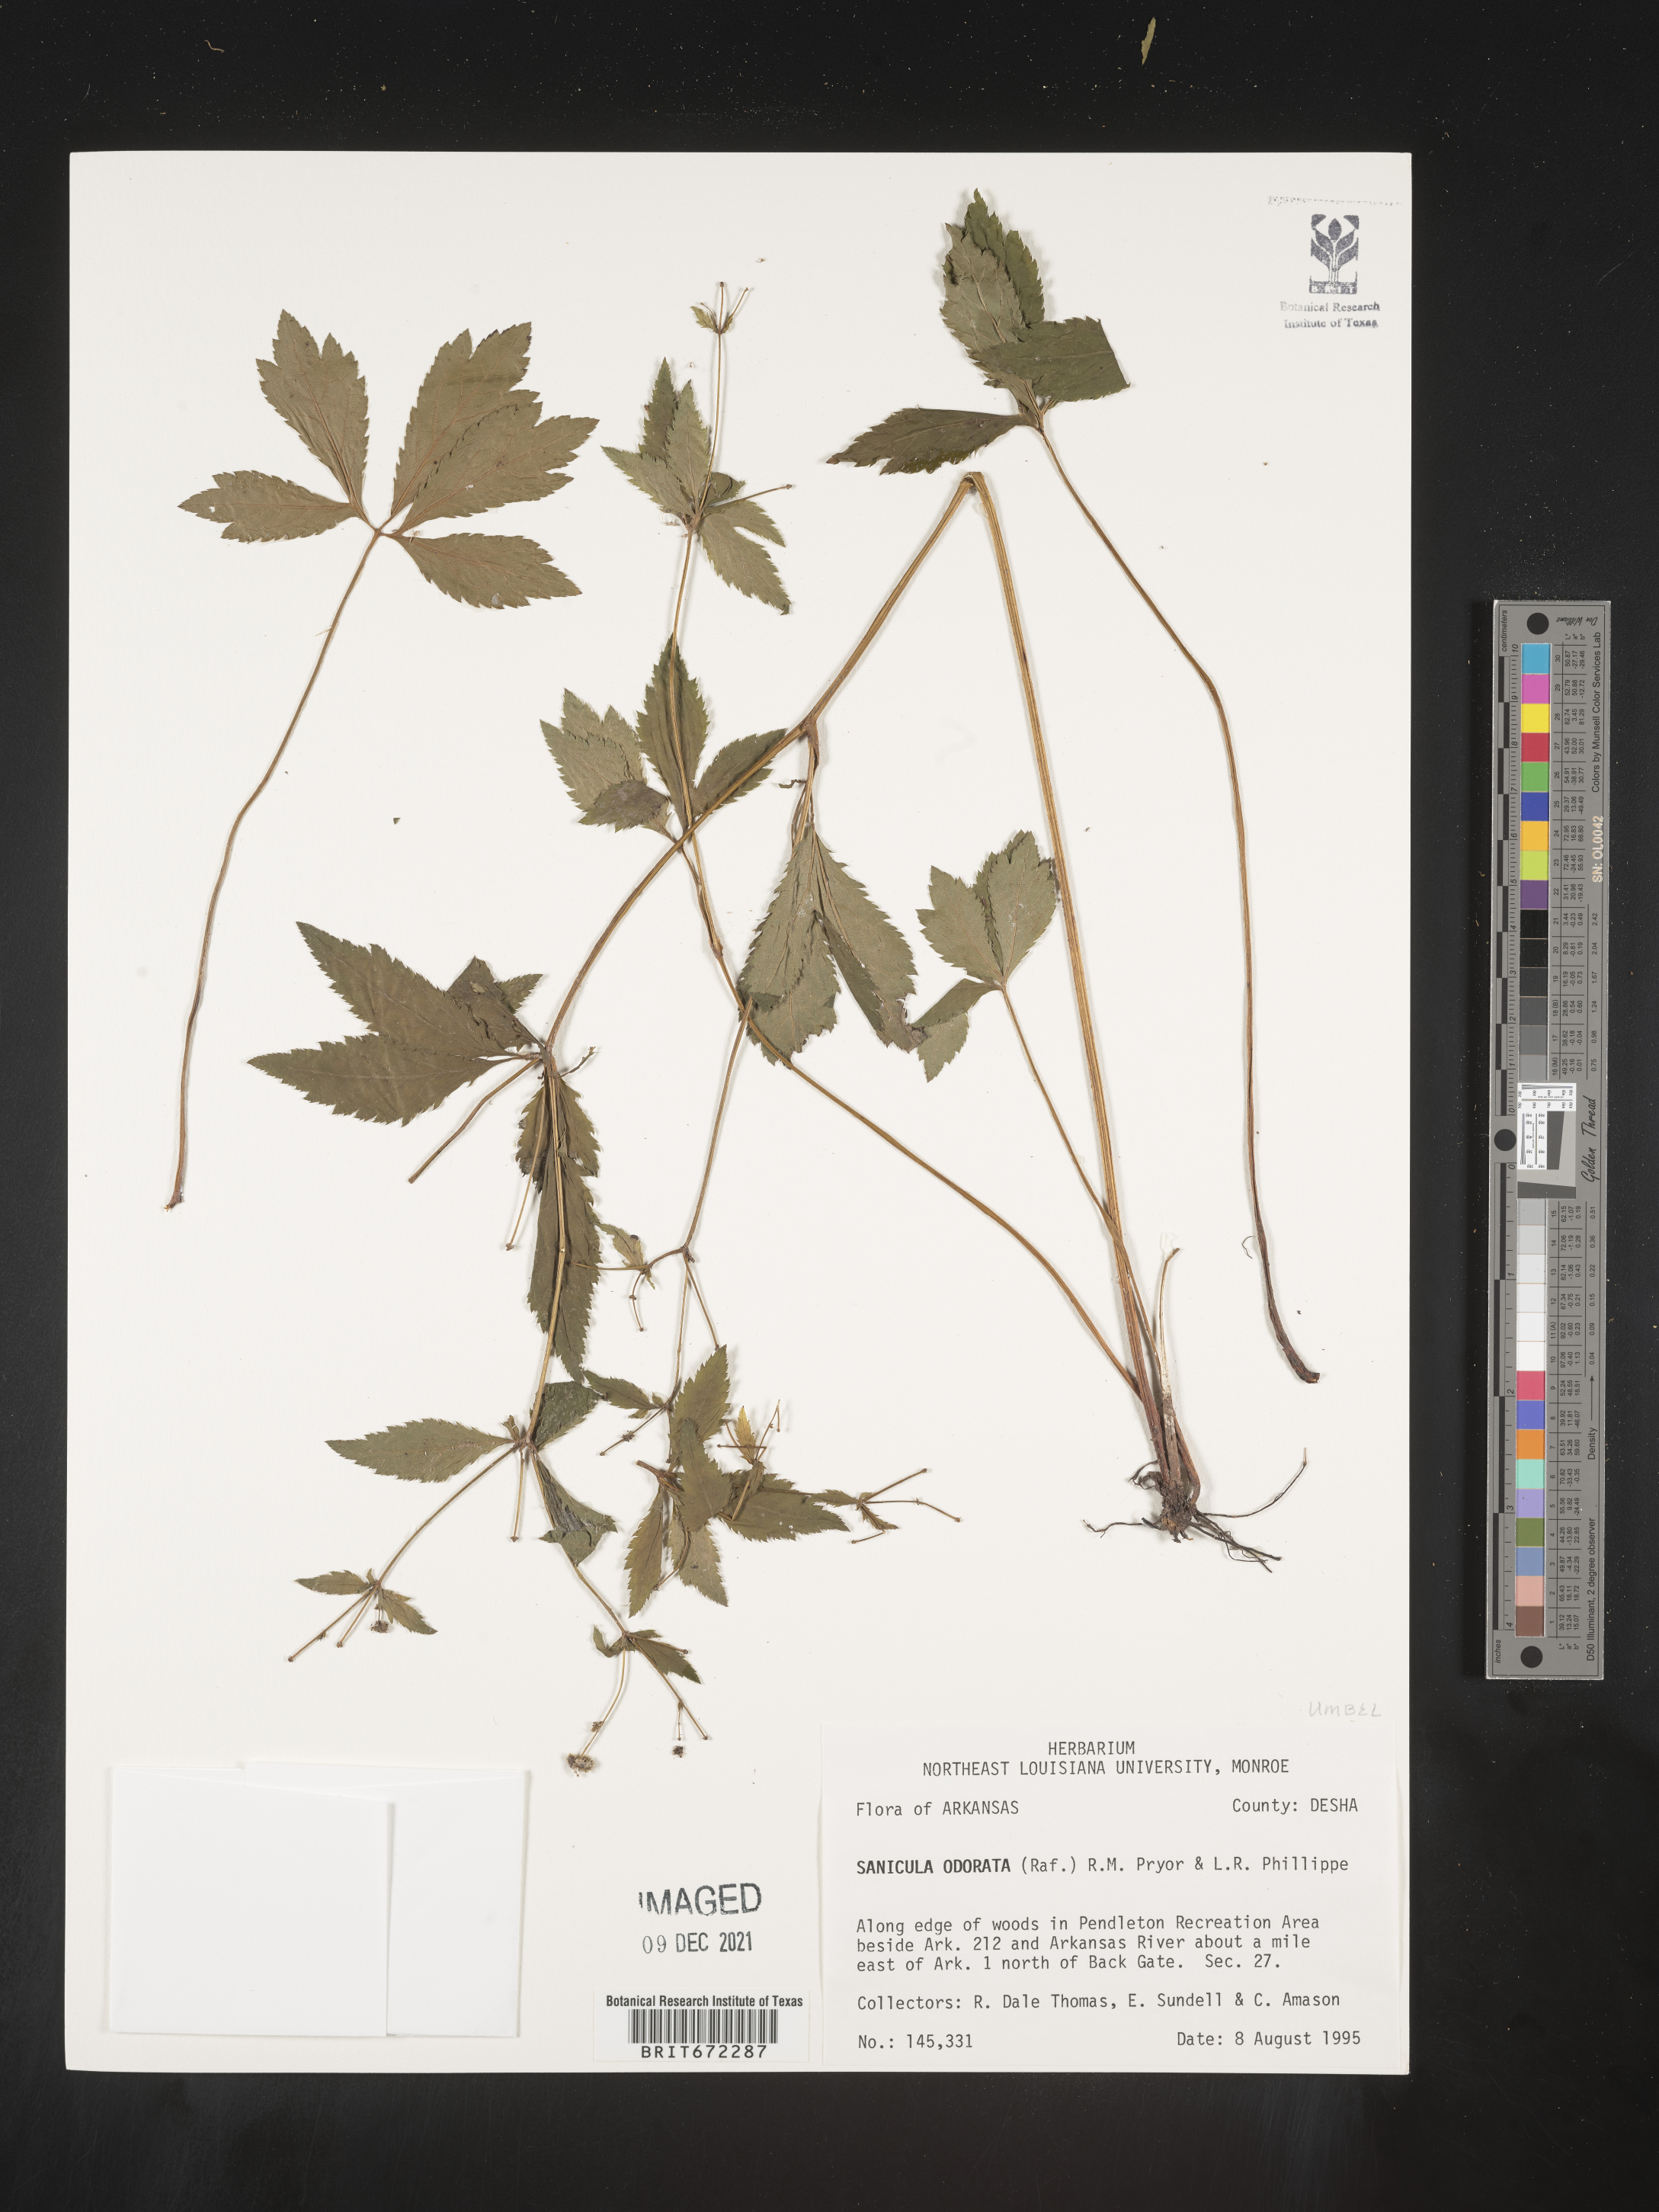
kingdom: Plantae
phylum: Tracheophyta
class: Magnoliopsida
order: Apiales
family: Apiaceae
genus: Sanicula
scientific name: Sanicula
